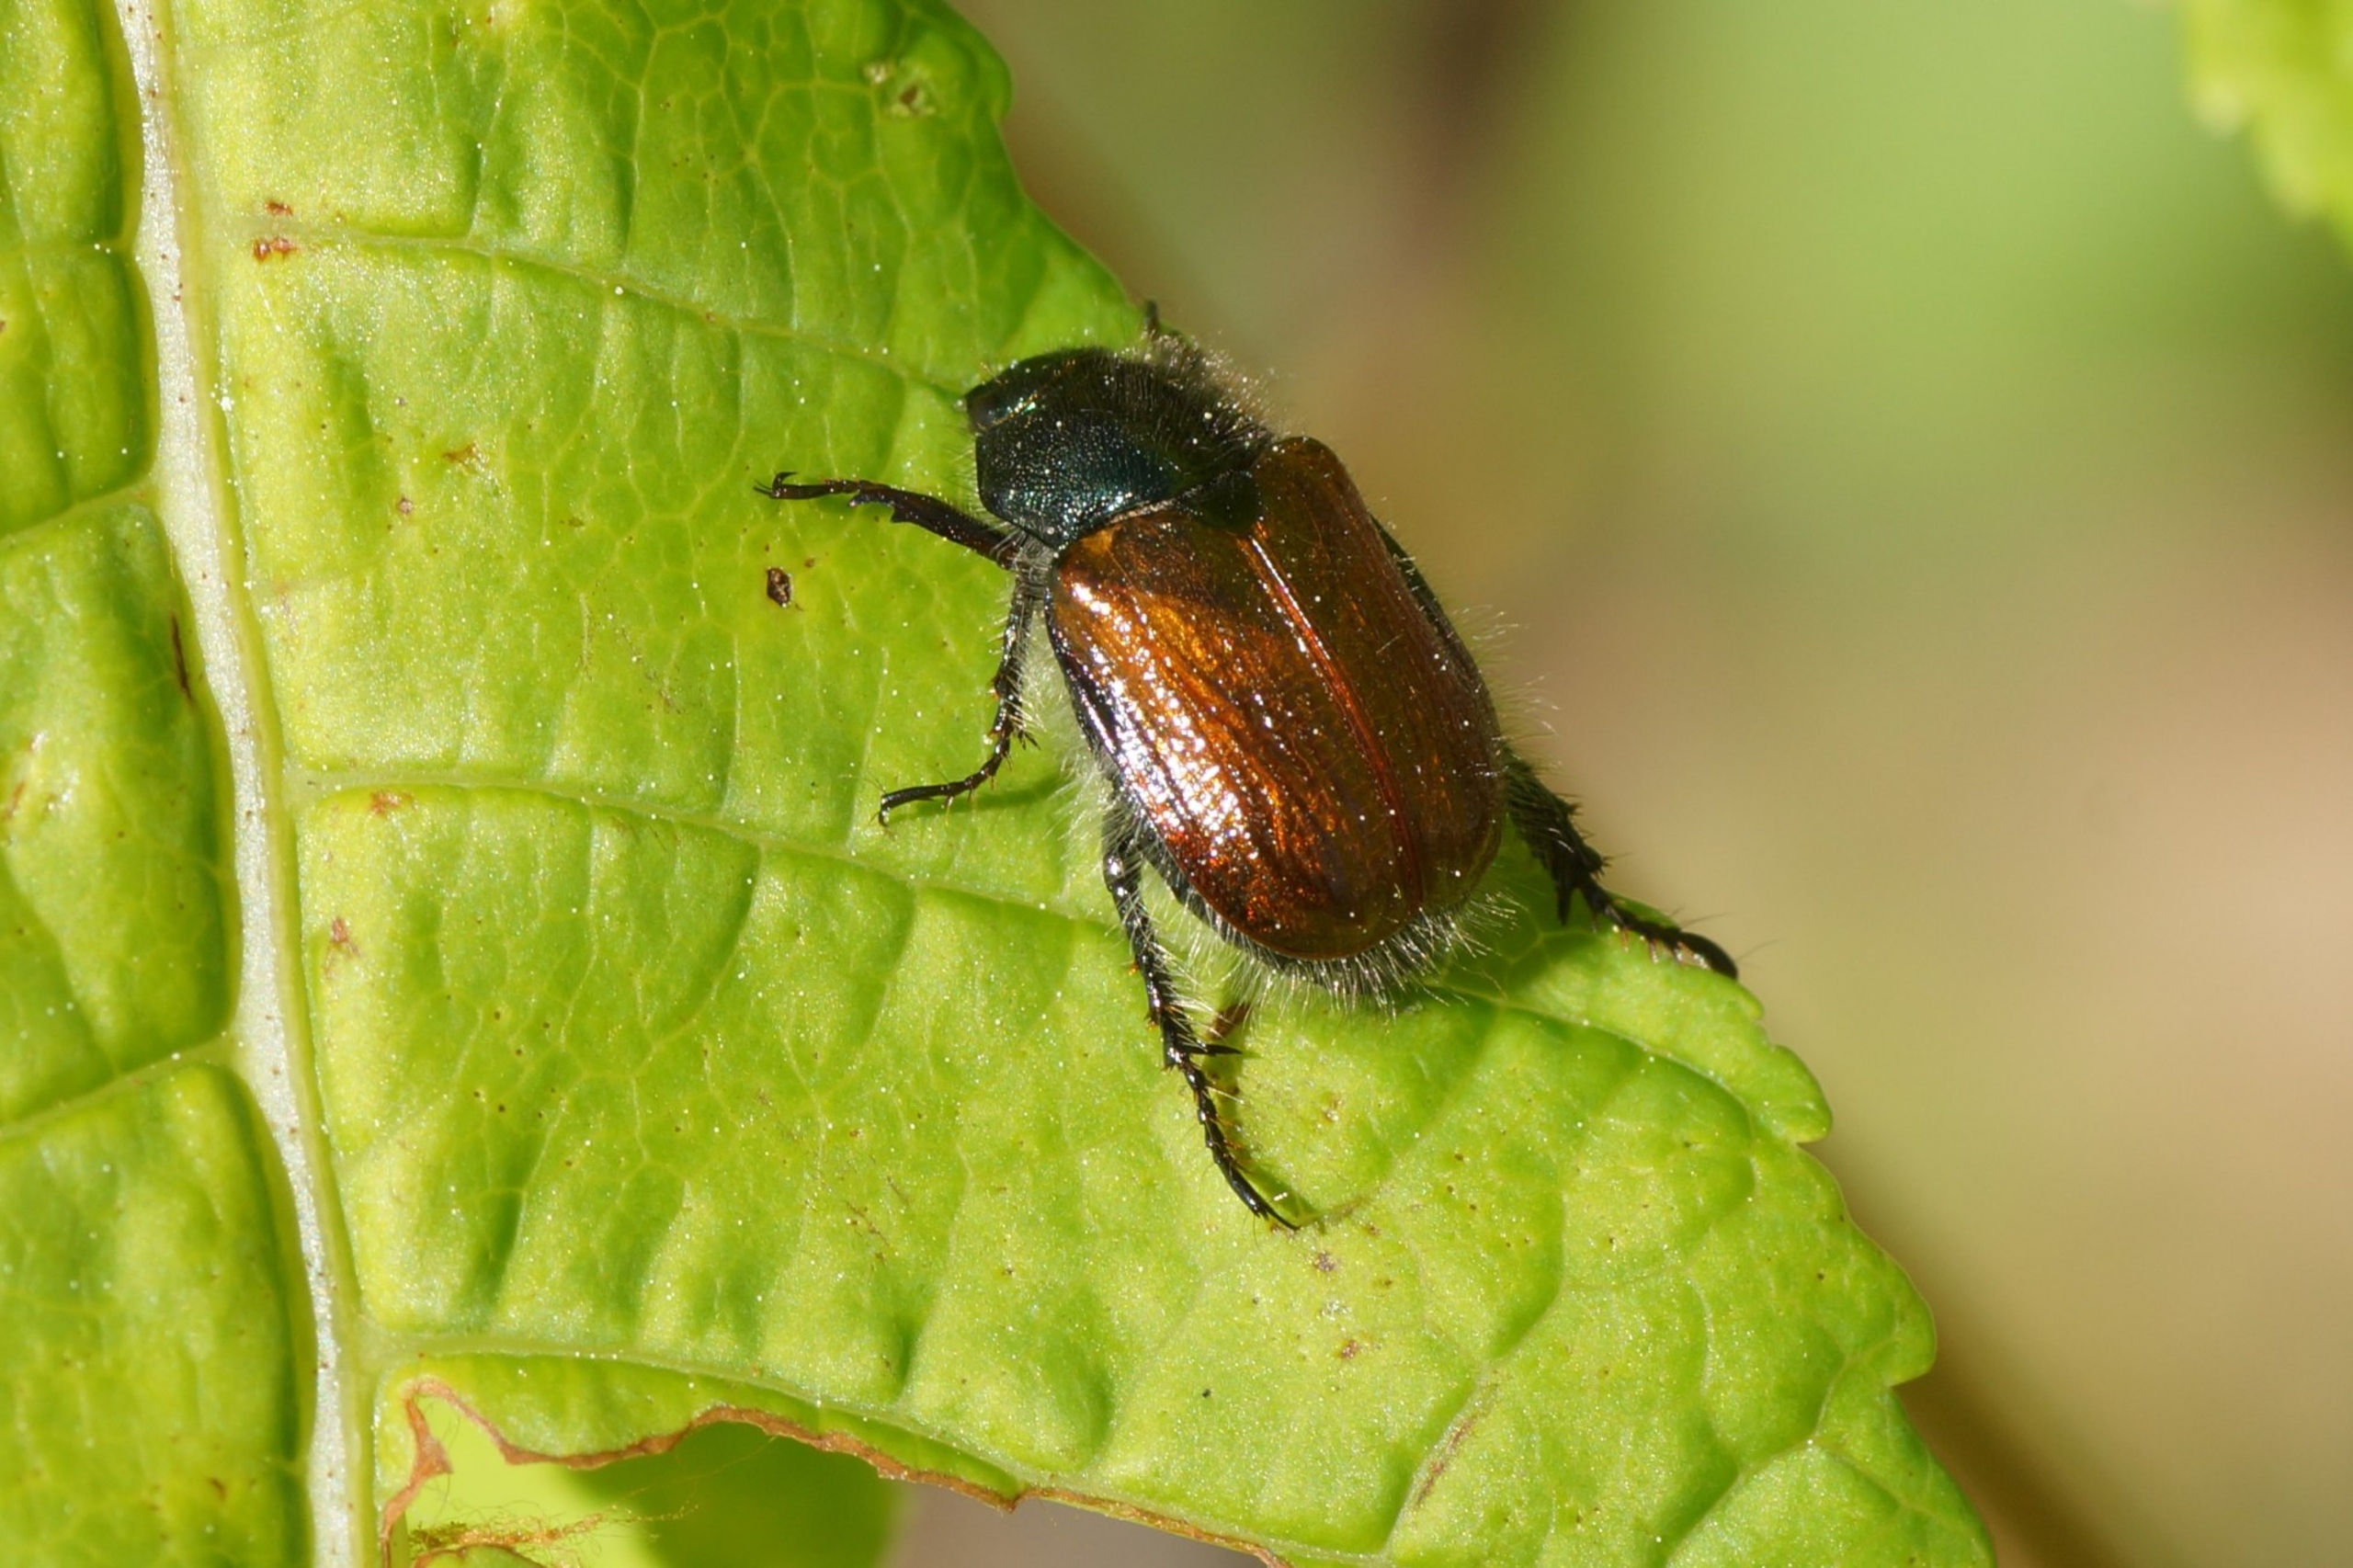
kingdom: Animalia
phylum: Arthropoda
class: Insecta
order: Coleoptera
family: Scarabaeidae
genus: Phyllopertha
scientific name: Phyllopertha horticola
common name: Gåsebille
